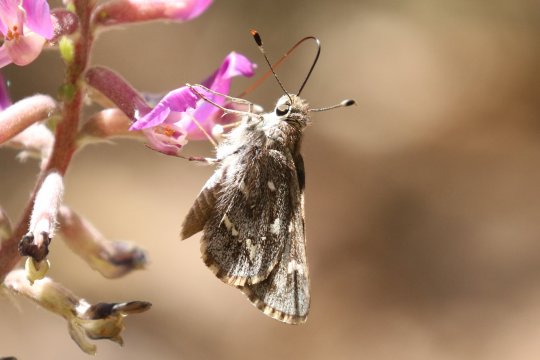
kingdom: Animalia
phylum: Arthropoda
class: Insecta
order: Lepidoptera
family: Hesperiidae
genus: Atrytonopsis
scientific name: Atrytonopsis python
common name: Python Skipper
